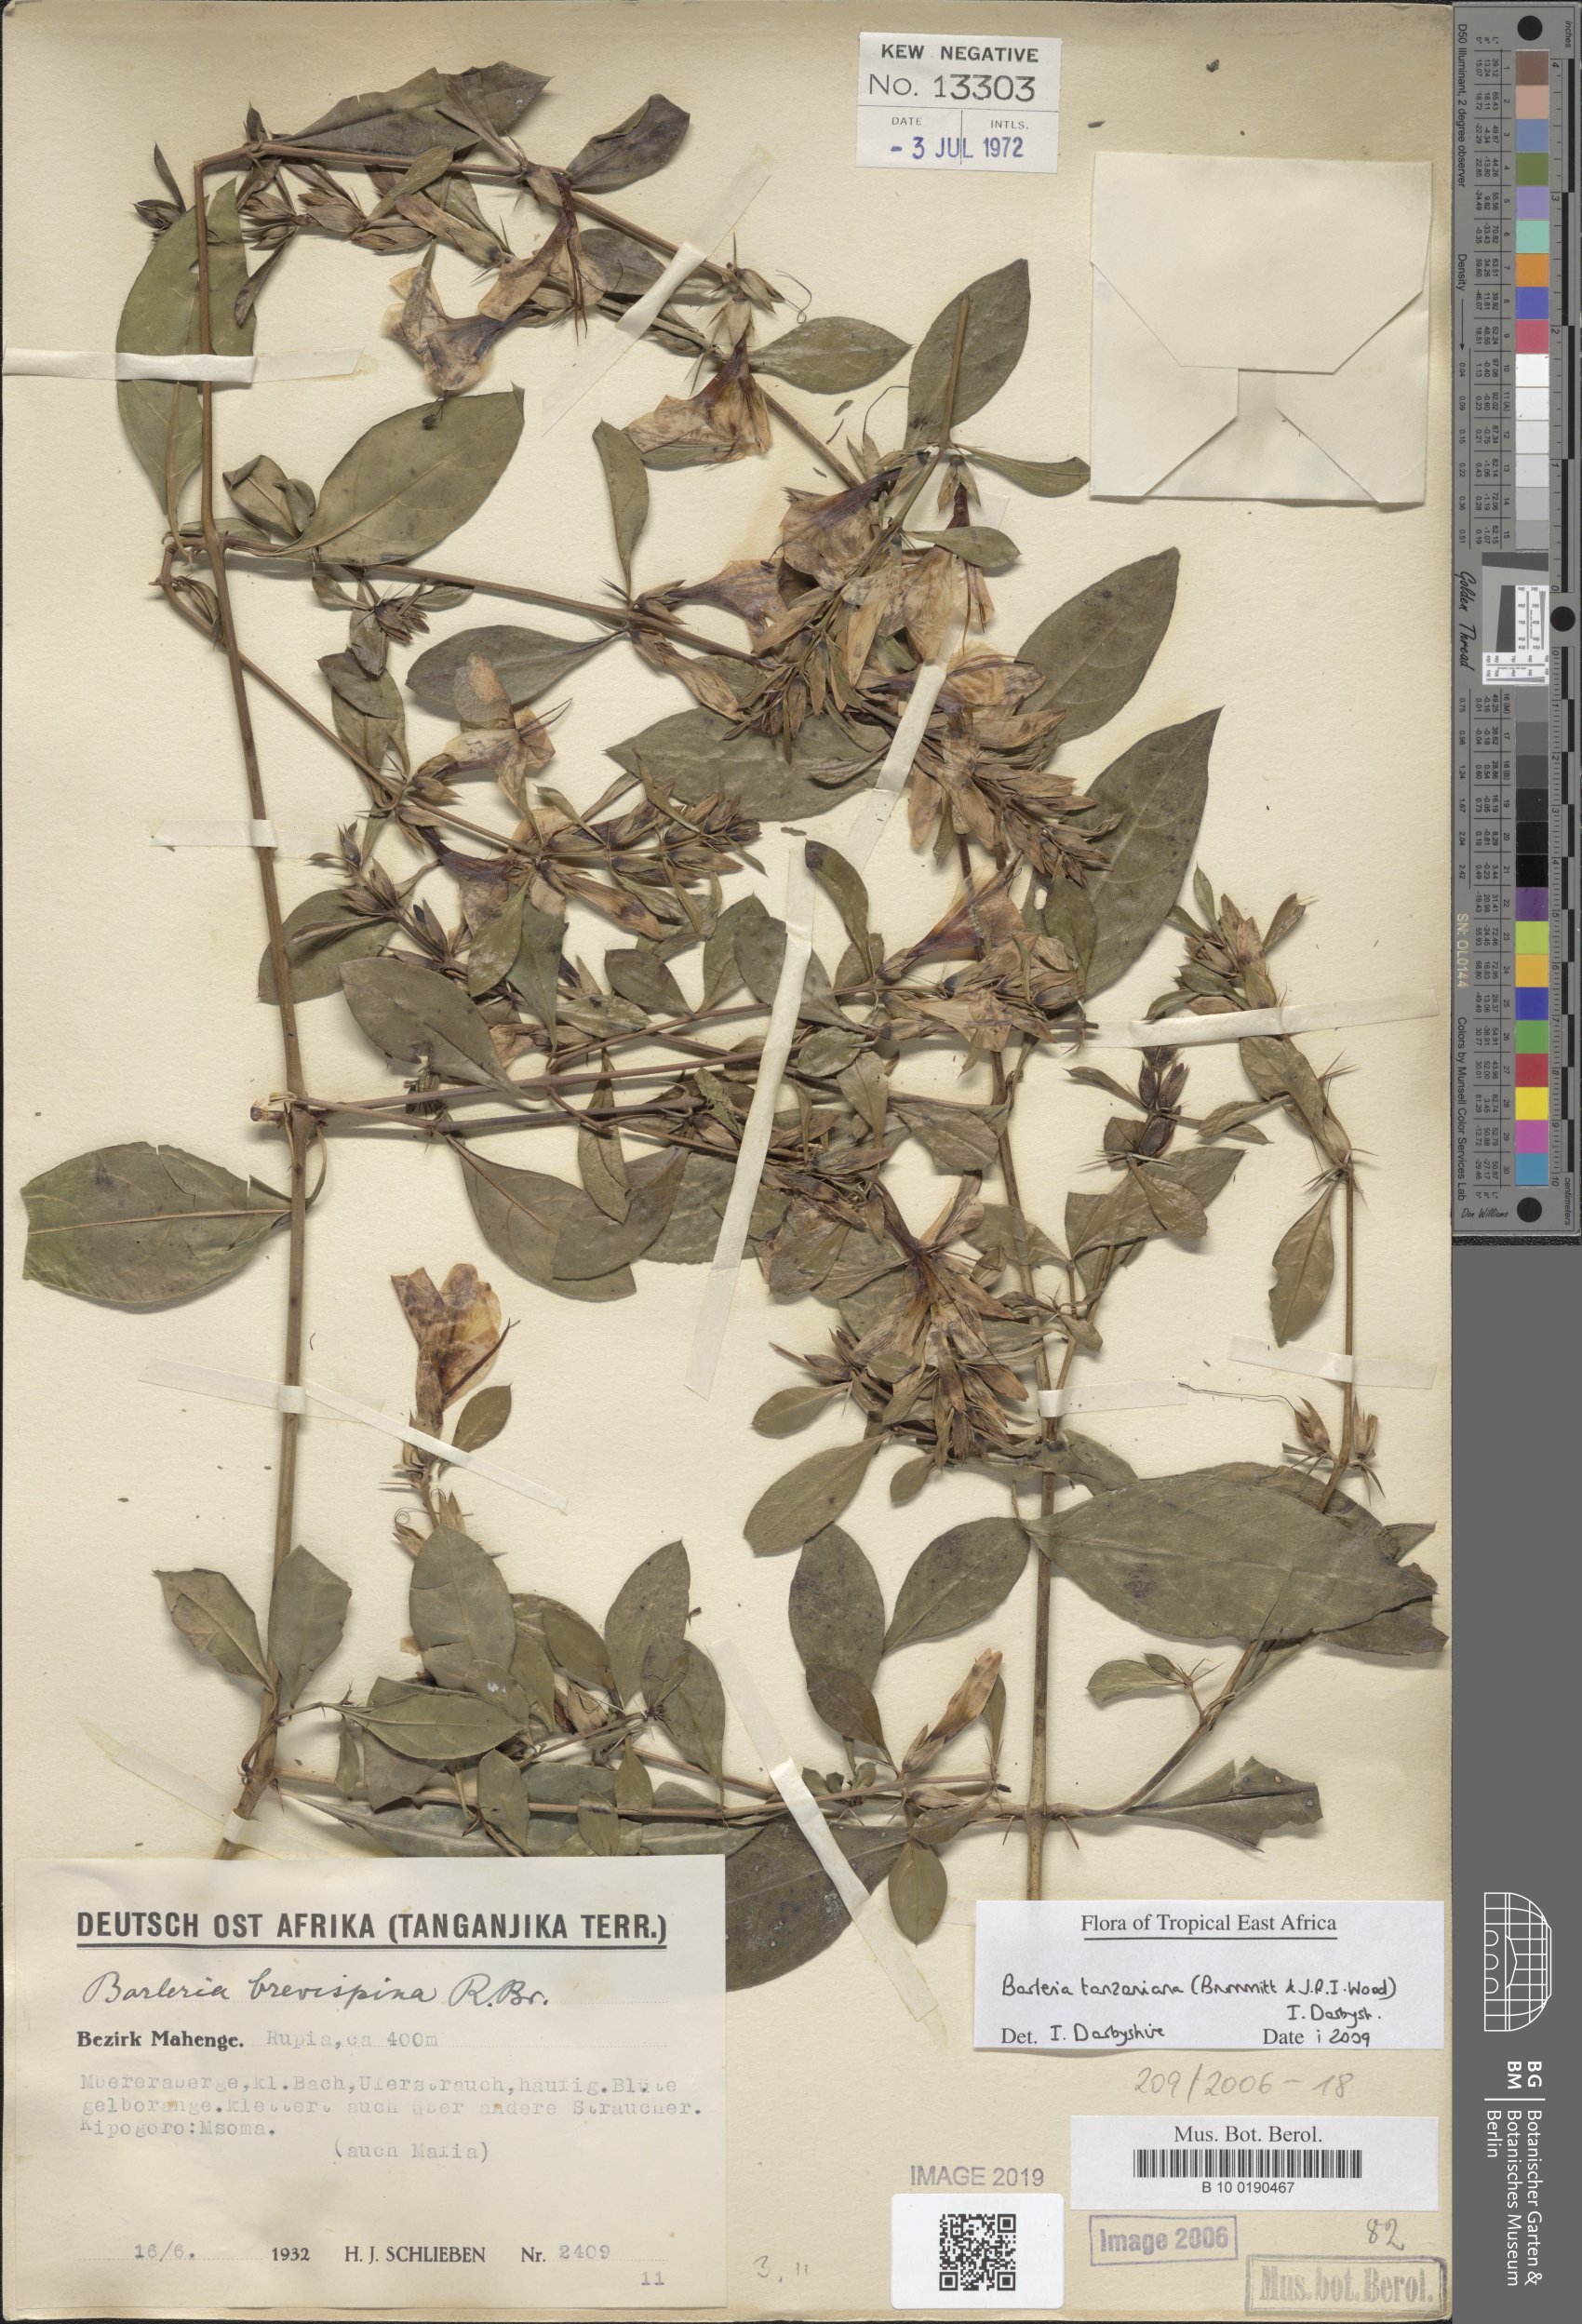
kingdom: Plantae
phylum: Tracheophyta
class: Magnoliopsida
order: Lamiales
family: Acanthaceae
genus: Barleria
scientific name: Barleria quadrispina
